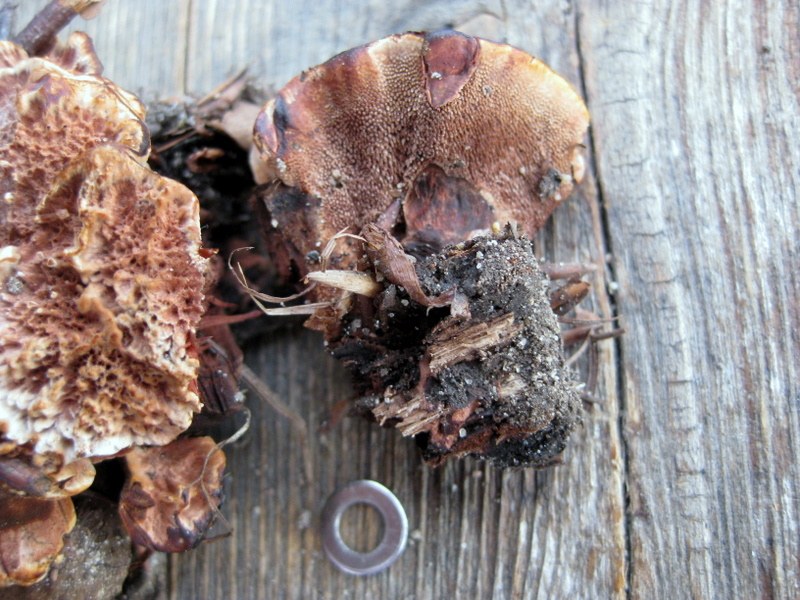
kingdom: Fungi
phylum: Basidiomycota
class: Agaricomycetes
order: Thelephorales
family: Bankeraceae
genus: Hydnellum
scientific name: Hydnellum concrescens
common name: Zoned tooth
